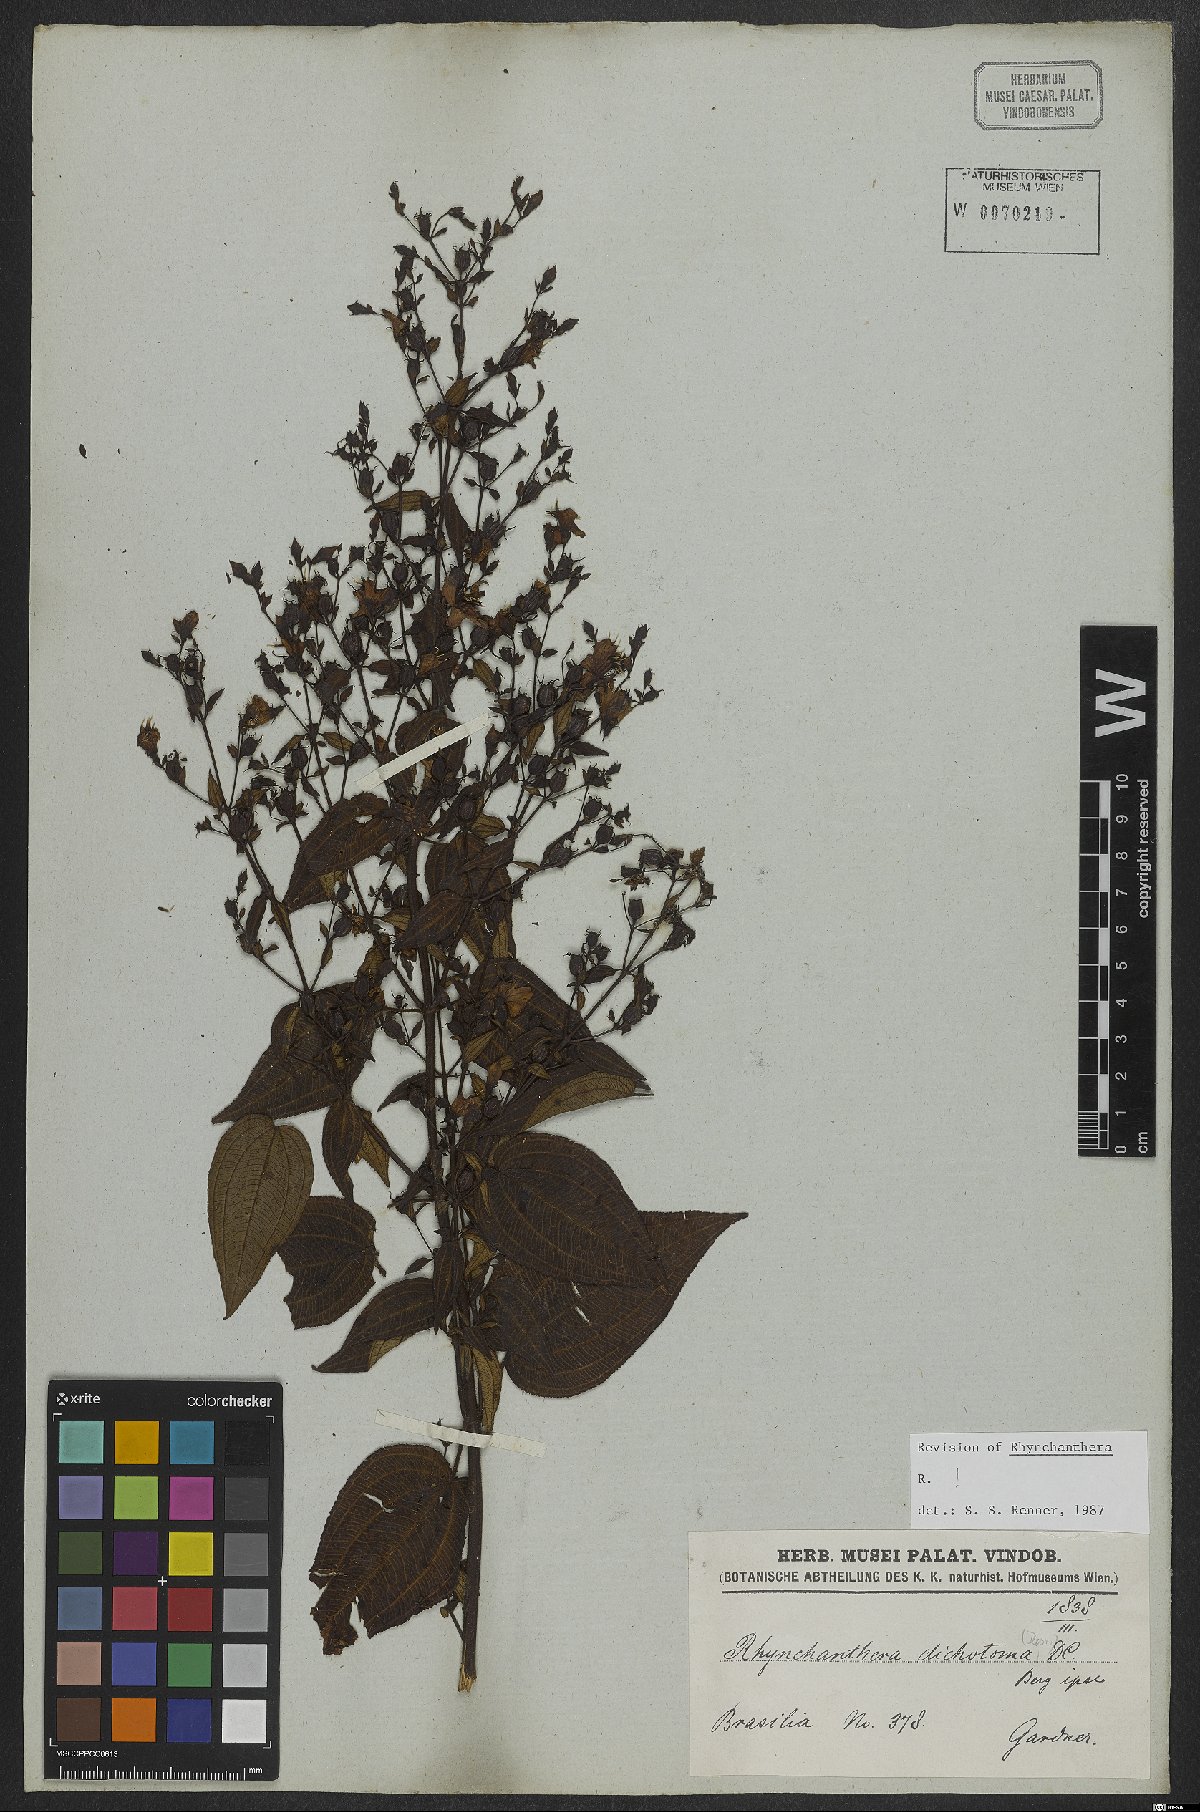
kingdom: Plantae
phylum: Tracheophyta
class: Magnoliopsida
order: Myrtales
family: Melastomataceae
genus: Rhynchanthera
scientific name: Rhynchanthera dichotoma
